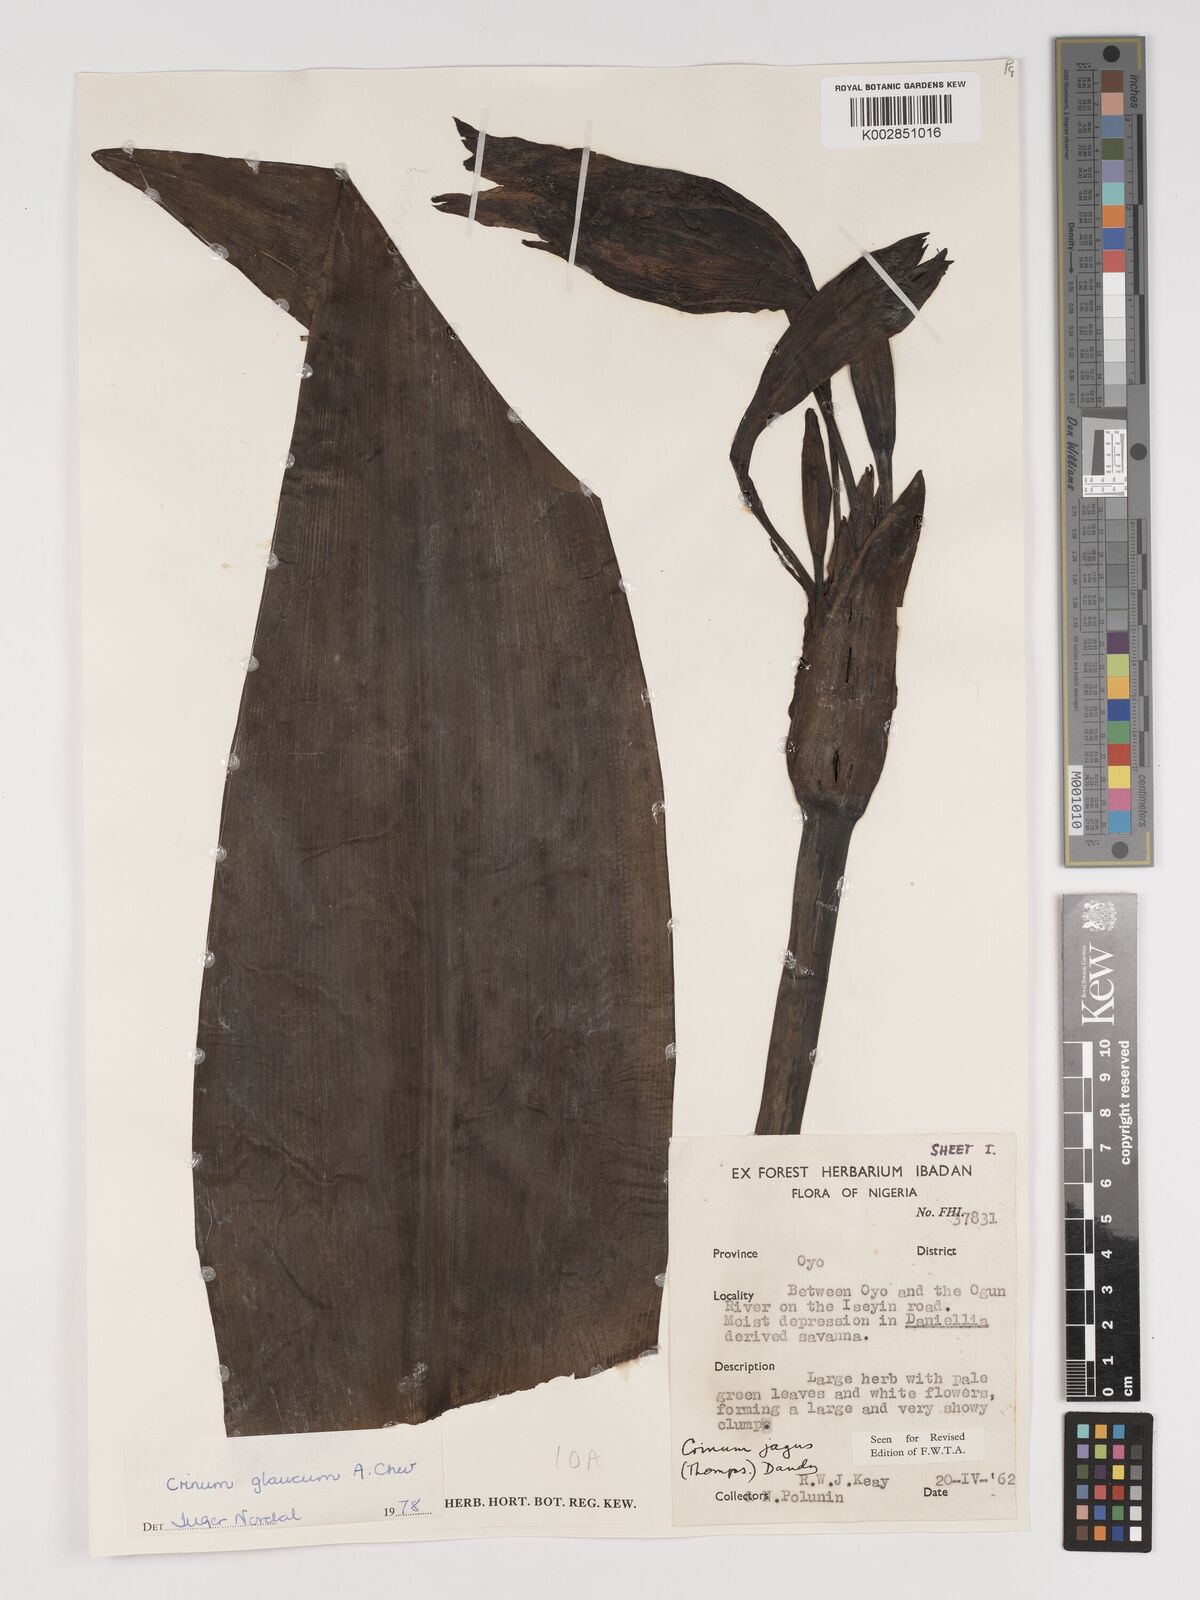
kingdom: Plantae
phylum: Tracheophyta
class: Liliopsida
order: Asparagales
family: Amaryllidaceae
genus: Crinum
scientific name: Crinum glaucum
